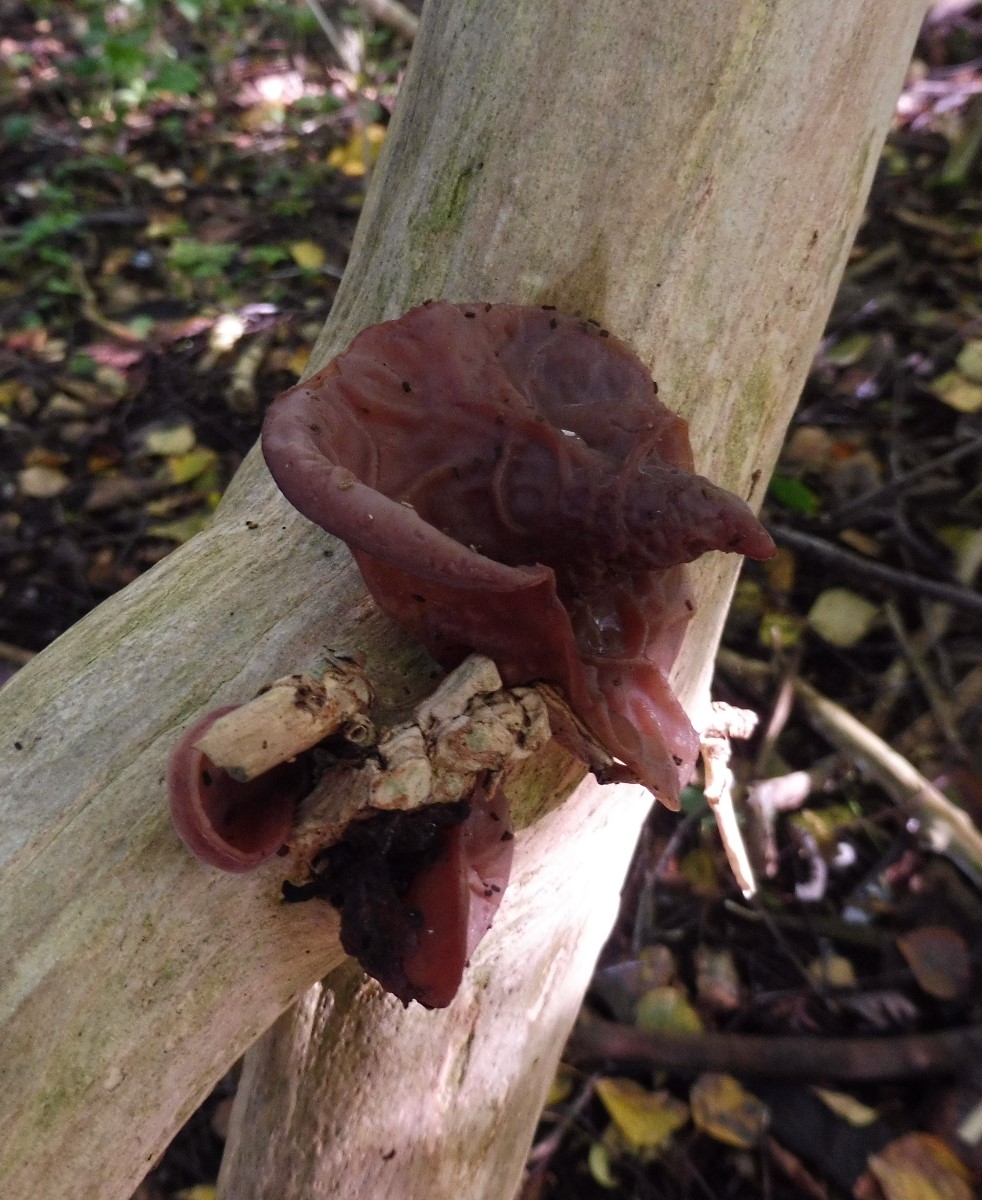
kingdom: Fungi
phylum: Basidiomycota
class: Agaricomycetes
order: Auriculariales
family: Auriculariaceae
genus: Auricularia
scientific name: Auricularia auricula-judae
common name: almindelig judasøre
